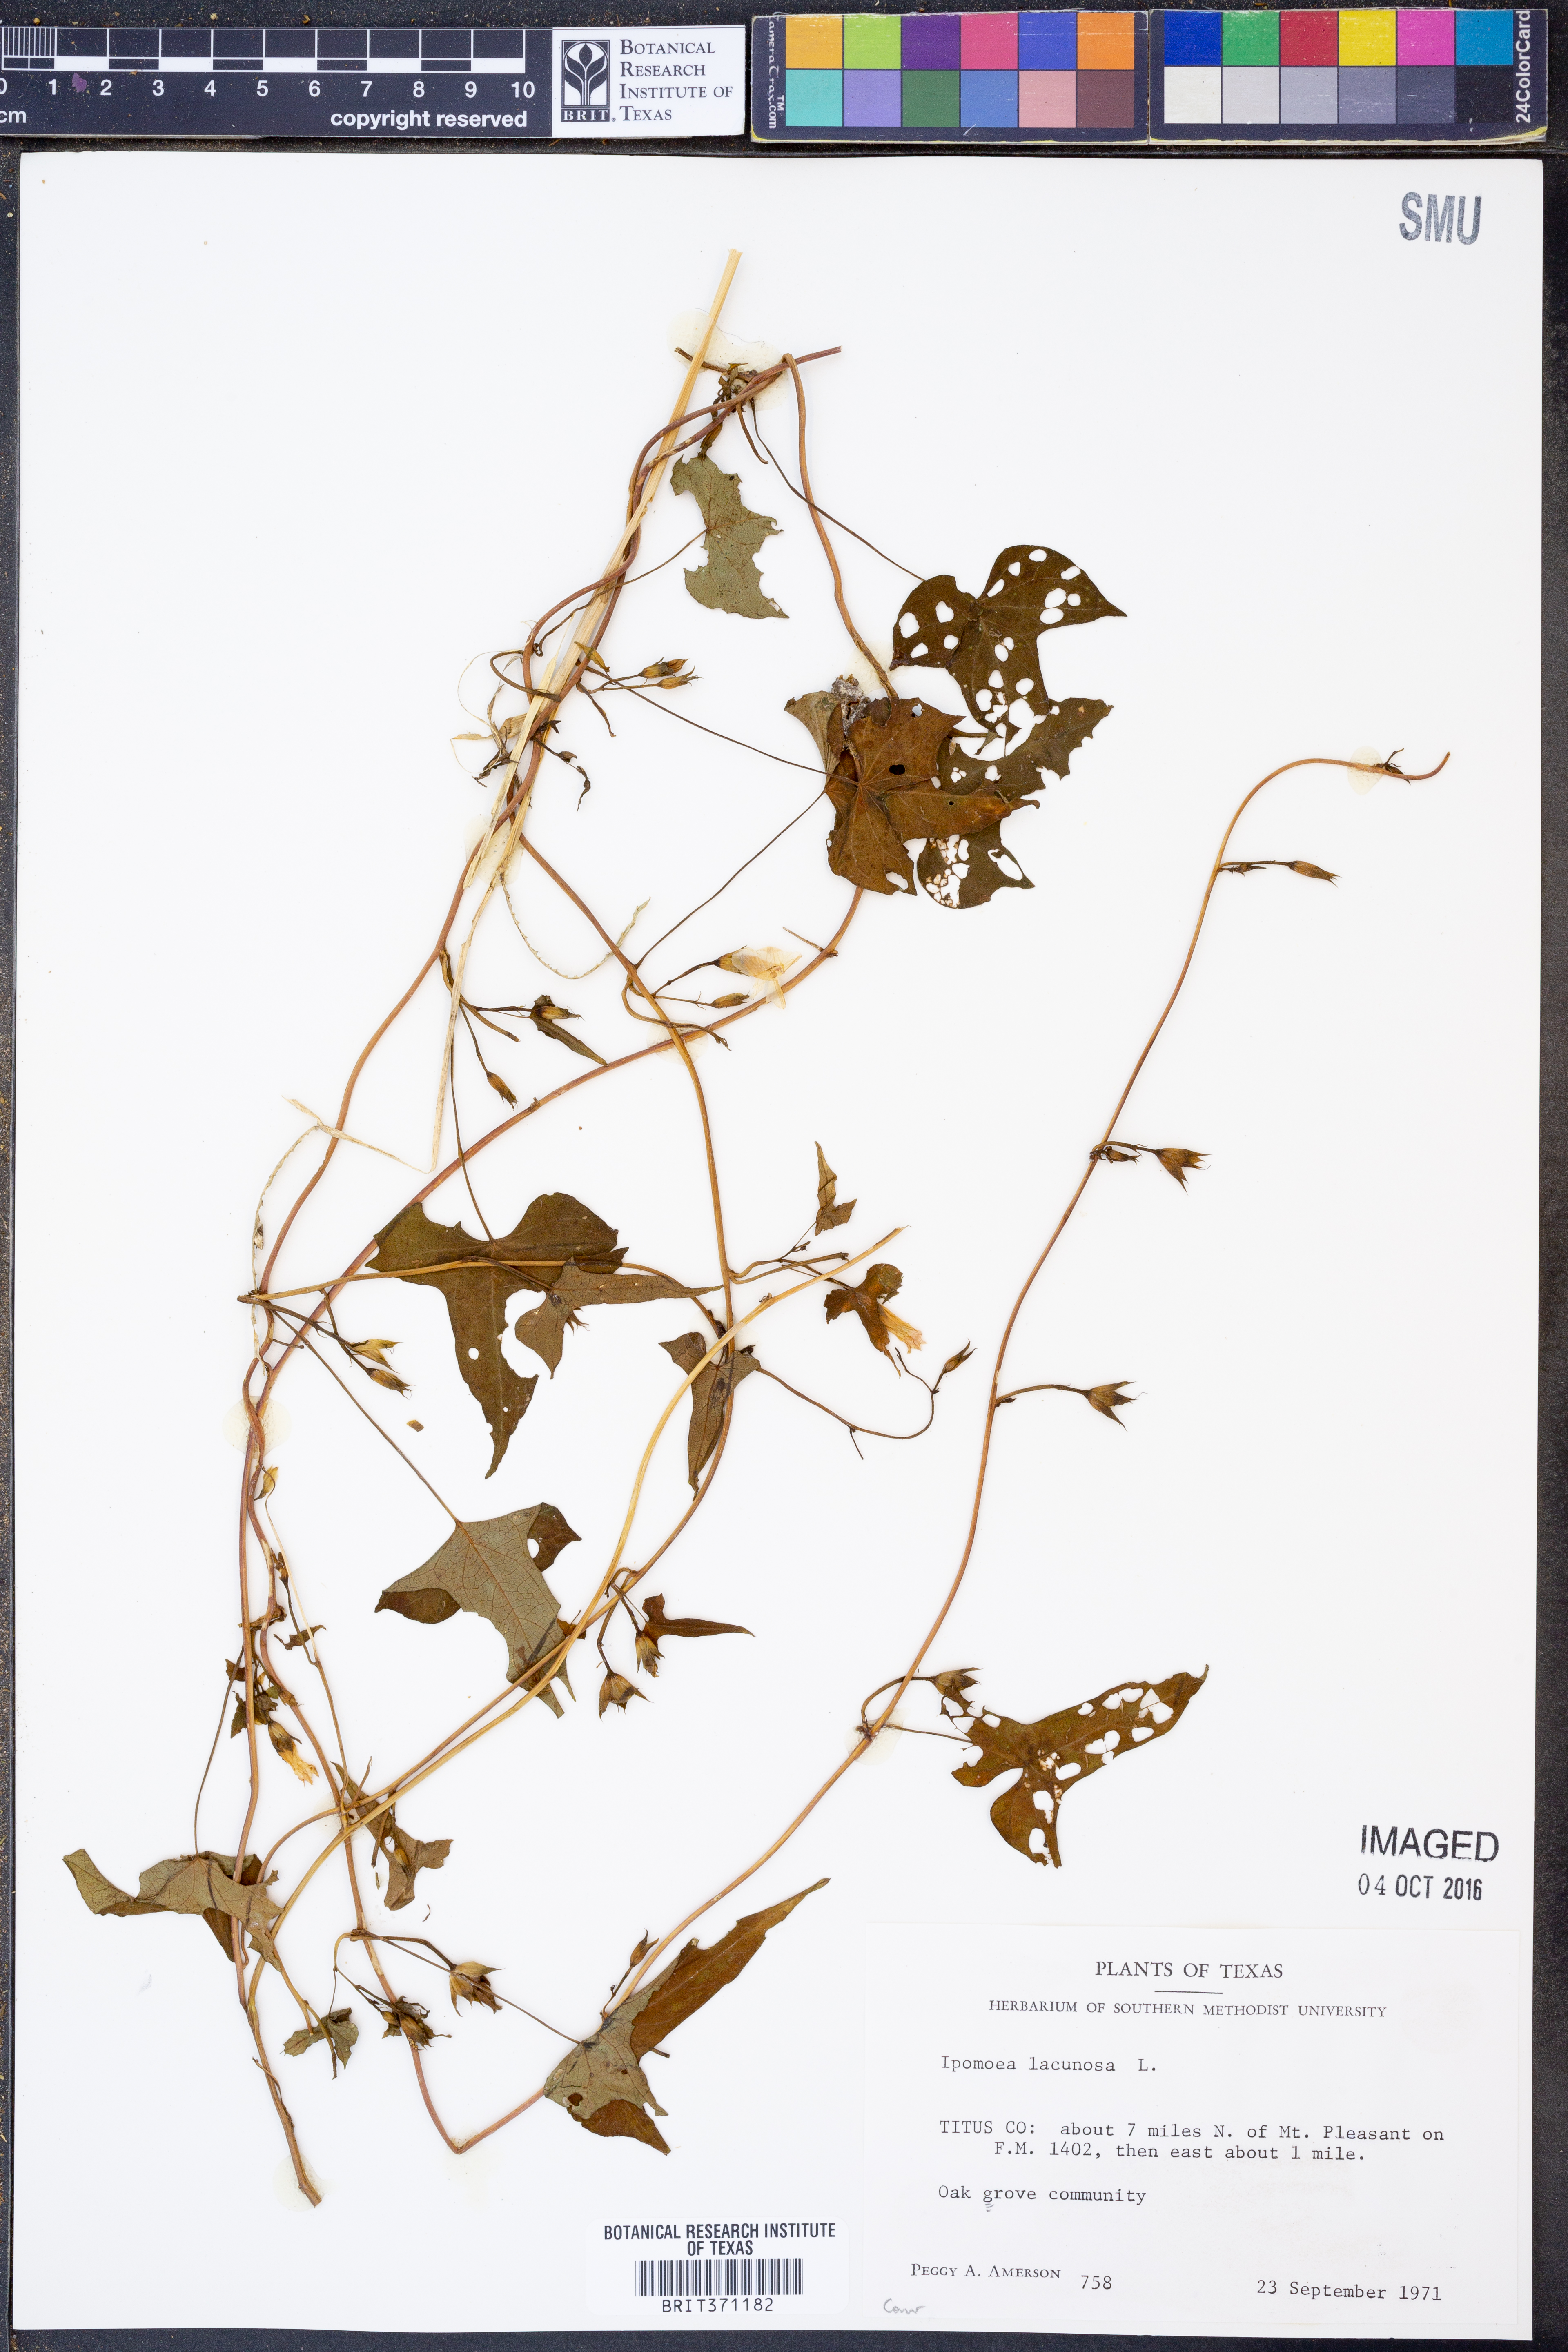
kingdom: Plantae
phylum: Tracheophyta
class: Magnoliopsida
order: Solanales
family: Convolvulaceae
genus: Ipomoea
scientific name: Ipomoea lacunosa
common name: White morning-glory
